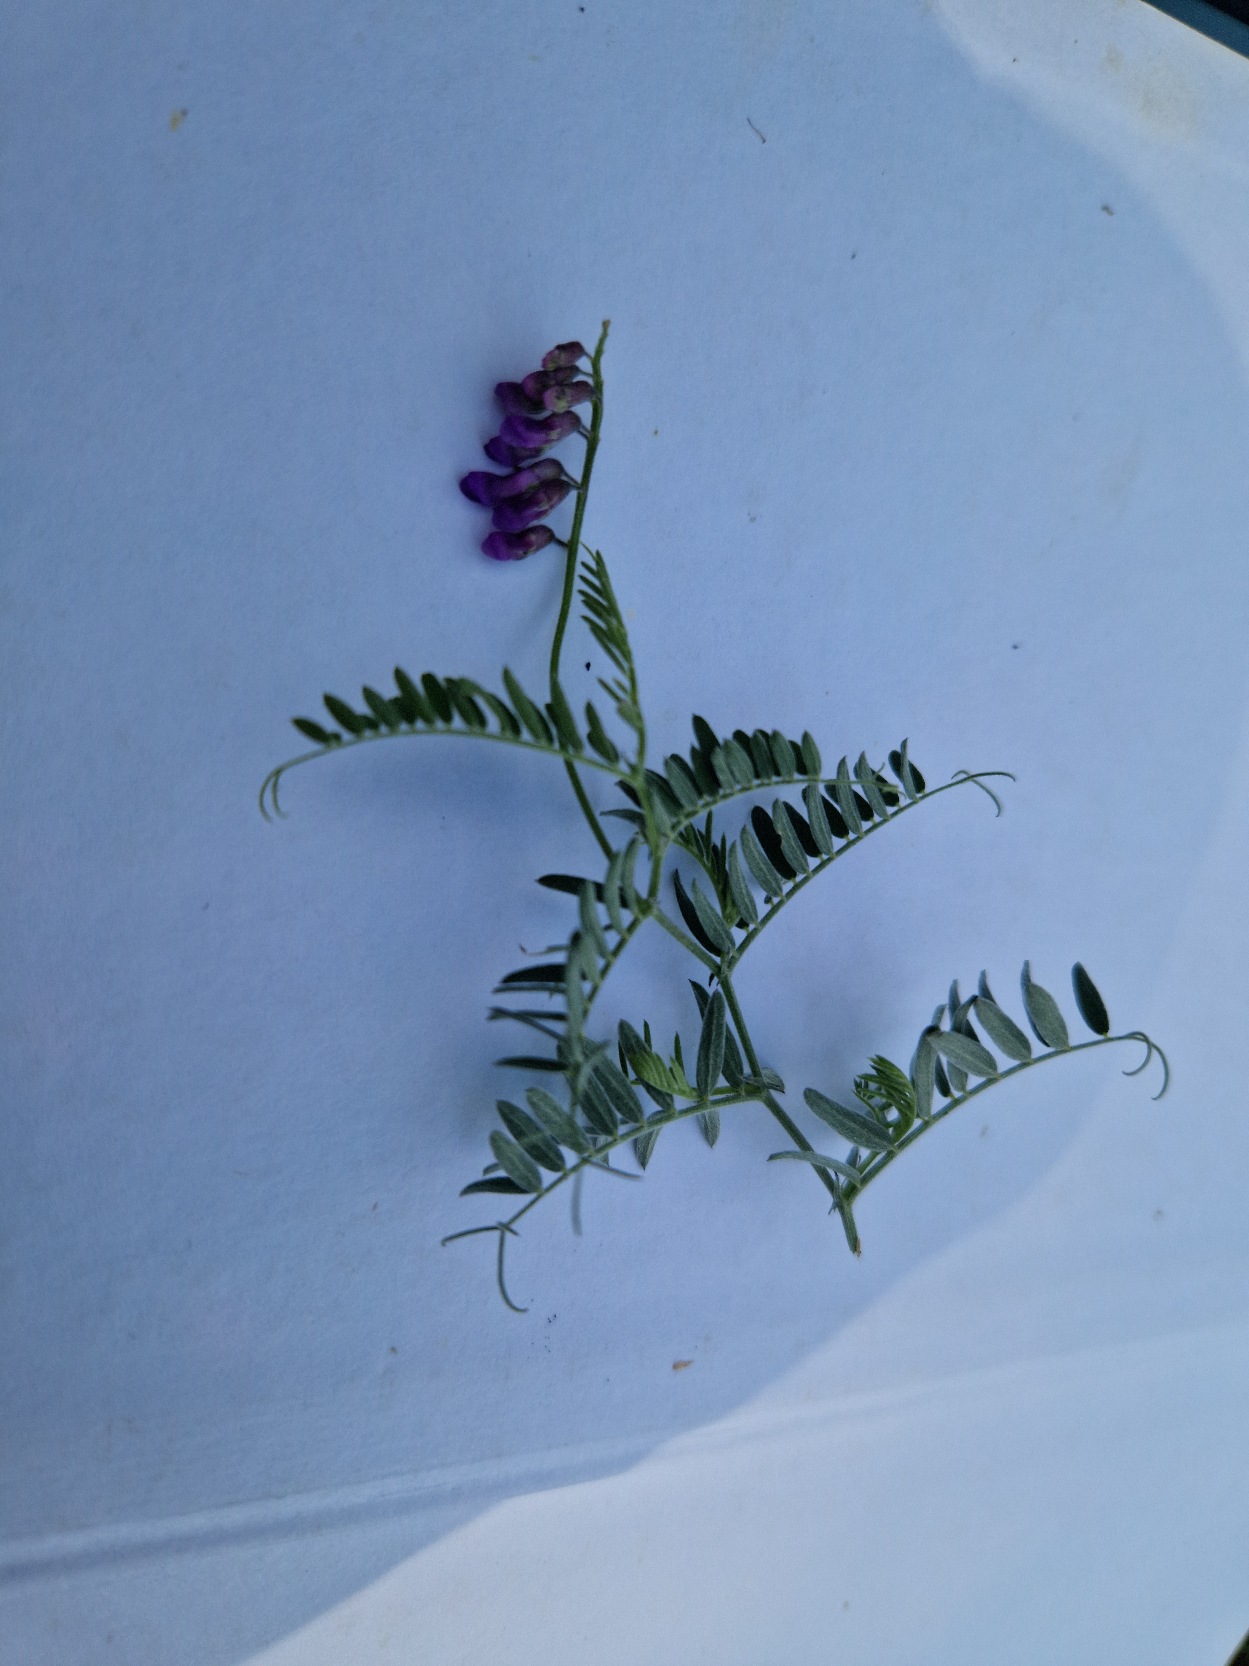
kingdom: Plantae
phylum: Tracheophyta
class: Magnoliopsida
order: Fabales
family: Fabaceae
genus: Vicia
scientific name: Vicia cracca
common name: Muse-vikke
